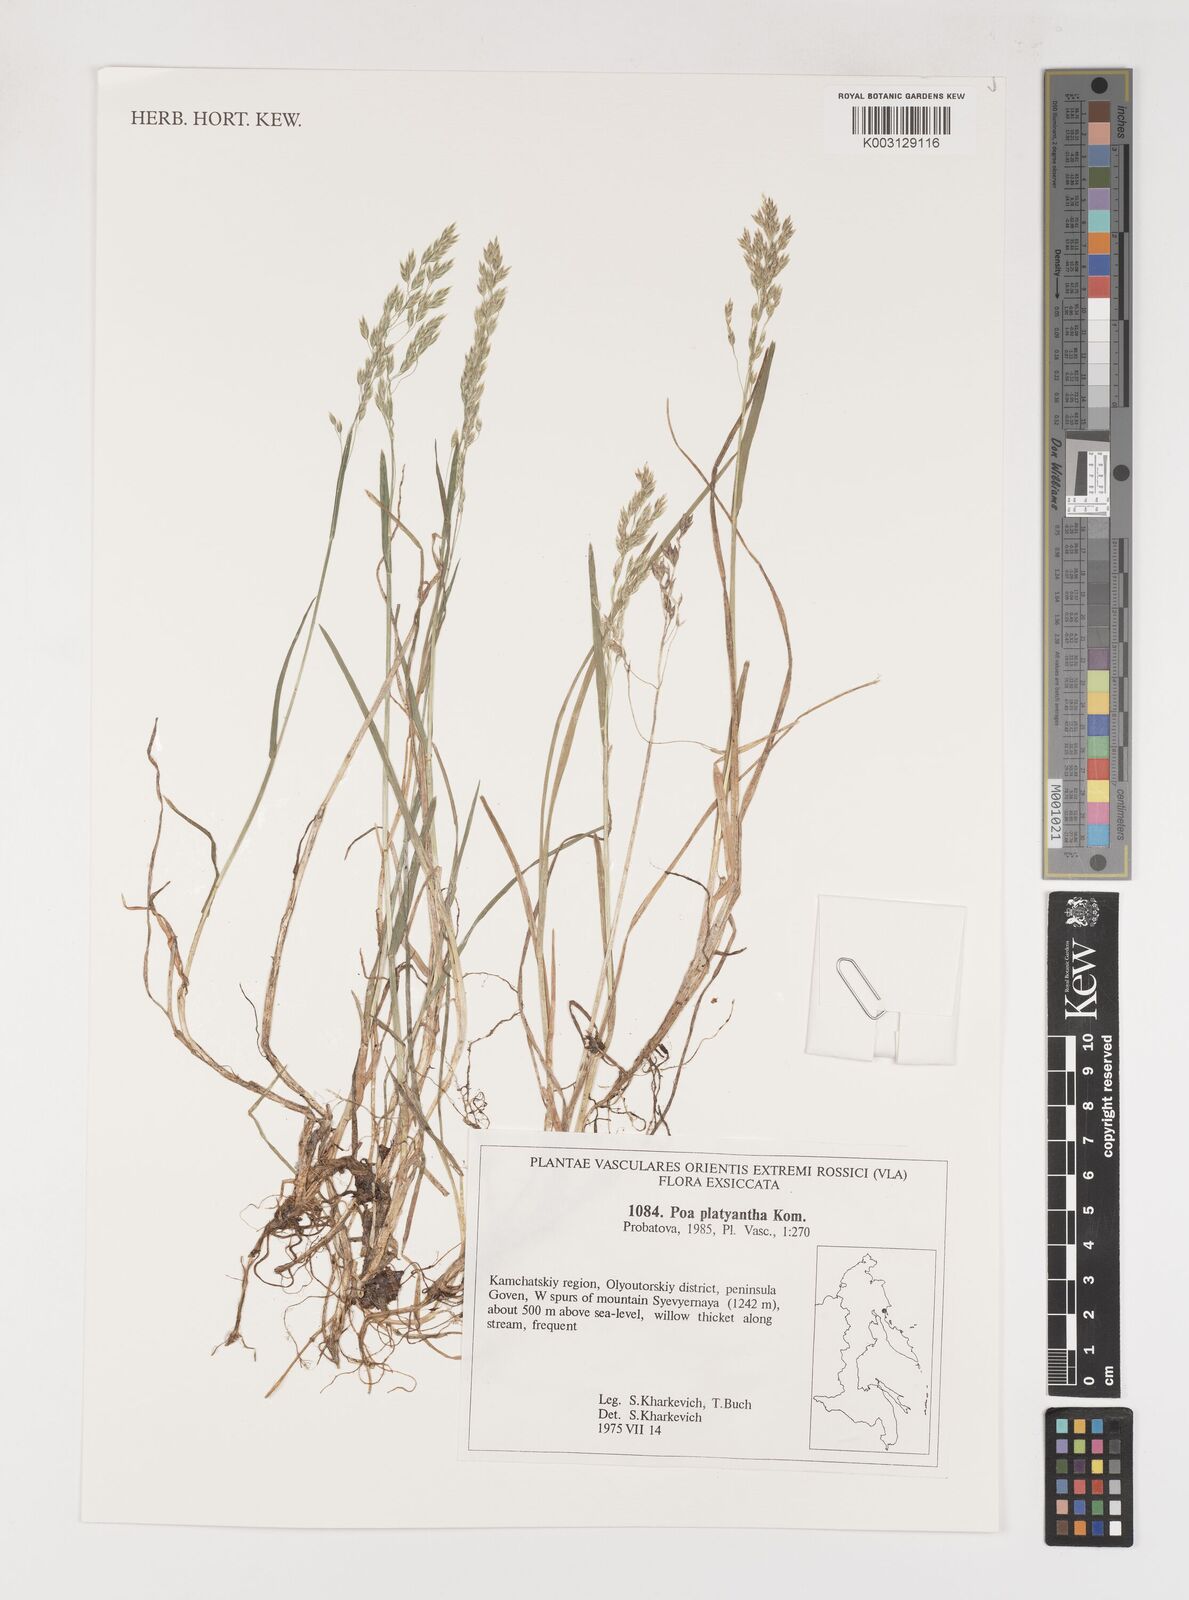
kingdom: Plantae
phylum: Tracheophyta
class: Liliopsida
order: Poales
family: Poaceae
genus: Poa
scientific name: Poa platyantha
